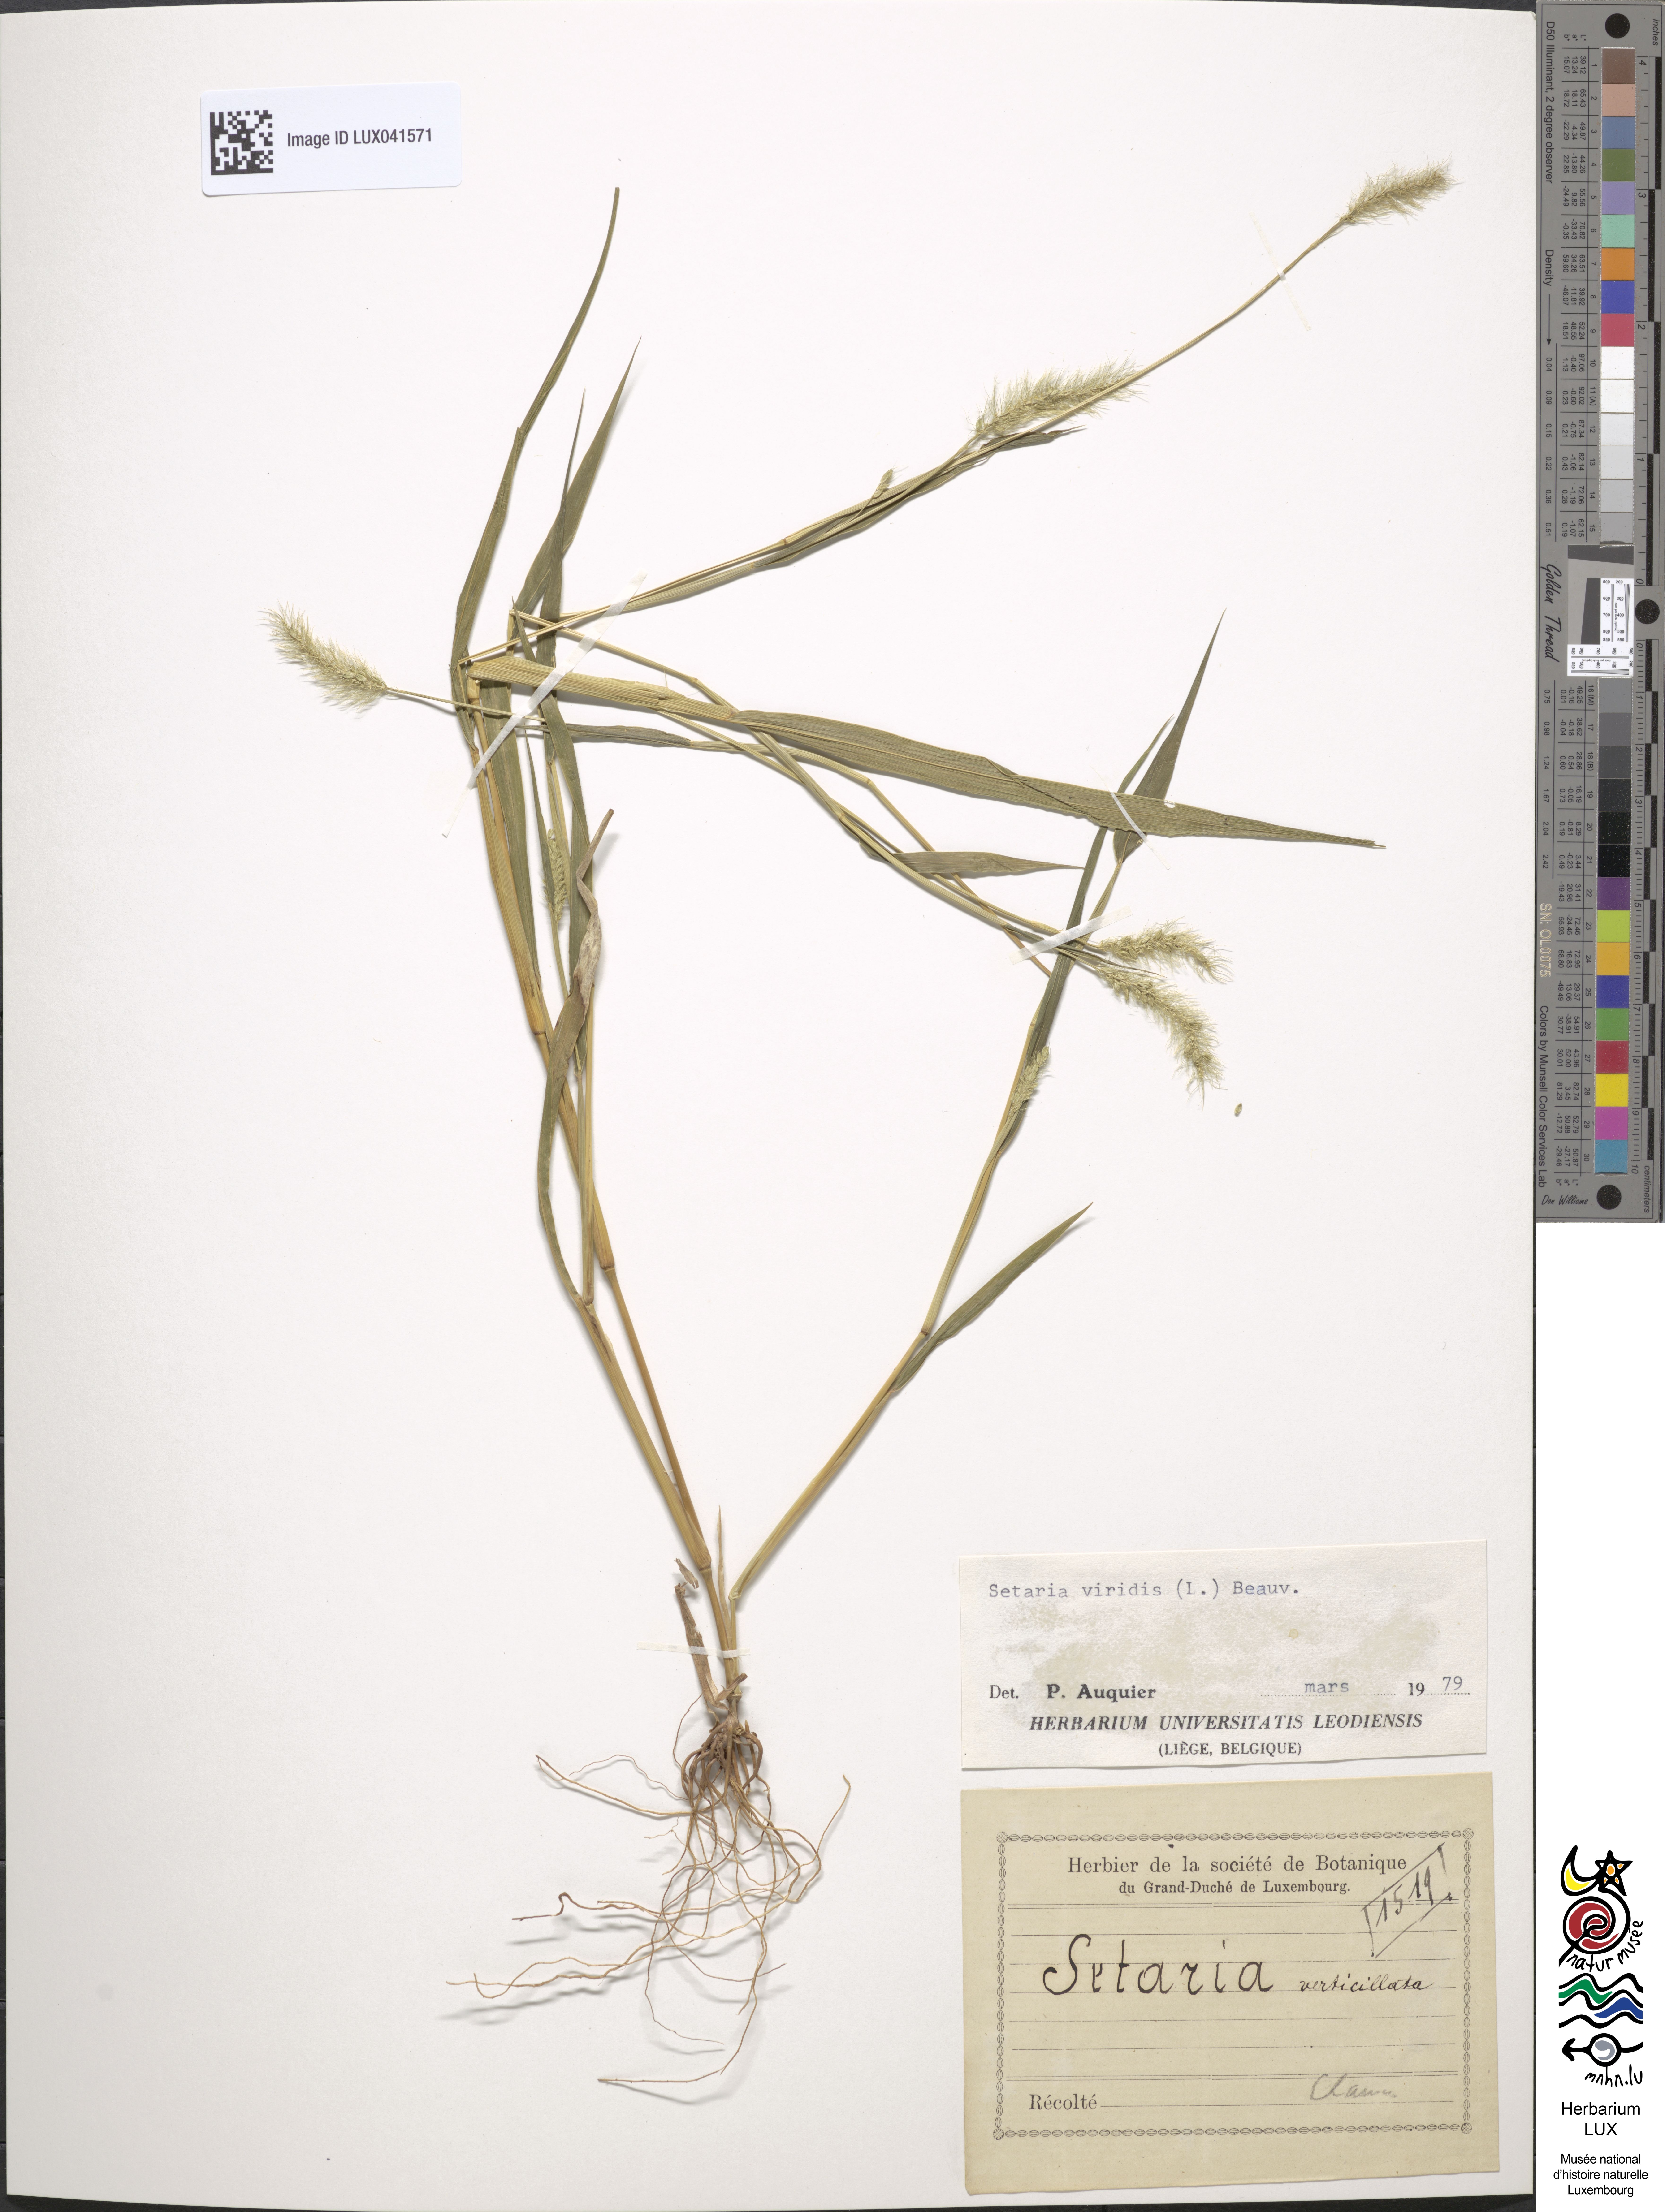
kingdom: Plantae
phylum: Tracheophyta
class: Liliopsida
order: Poales
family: Poaceae
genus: Setaria
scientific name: Setaria verticillata
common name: Hooked bristlegrass
